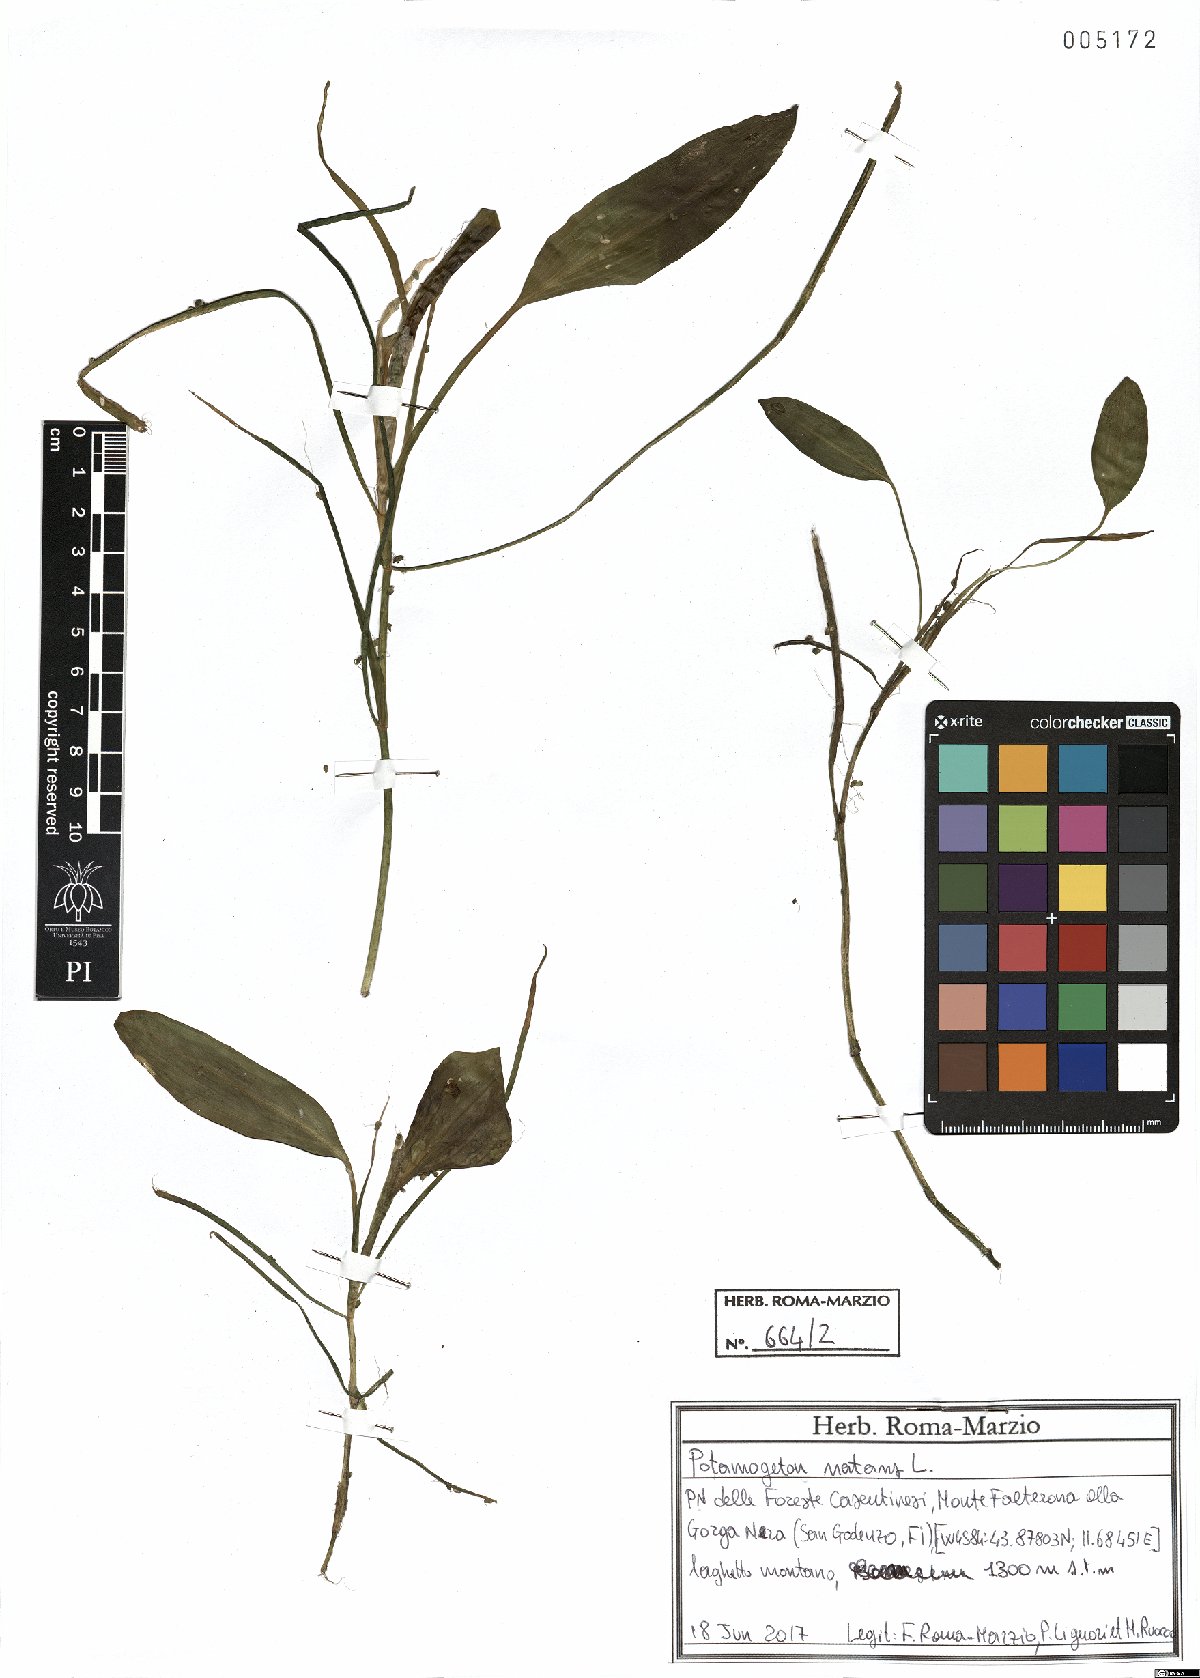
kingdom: Plantae
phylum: Tracheophyta
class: Liliopsida
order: Alismatales
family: Potamogetonaceae
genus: Potamogeton
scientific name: Potamogeton natans
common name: Broad-leaved pondweed
